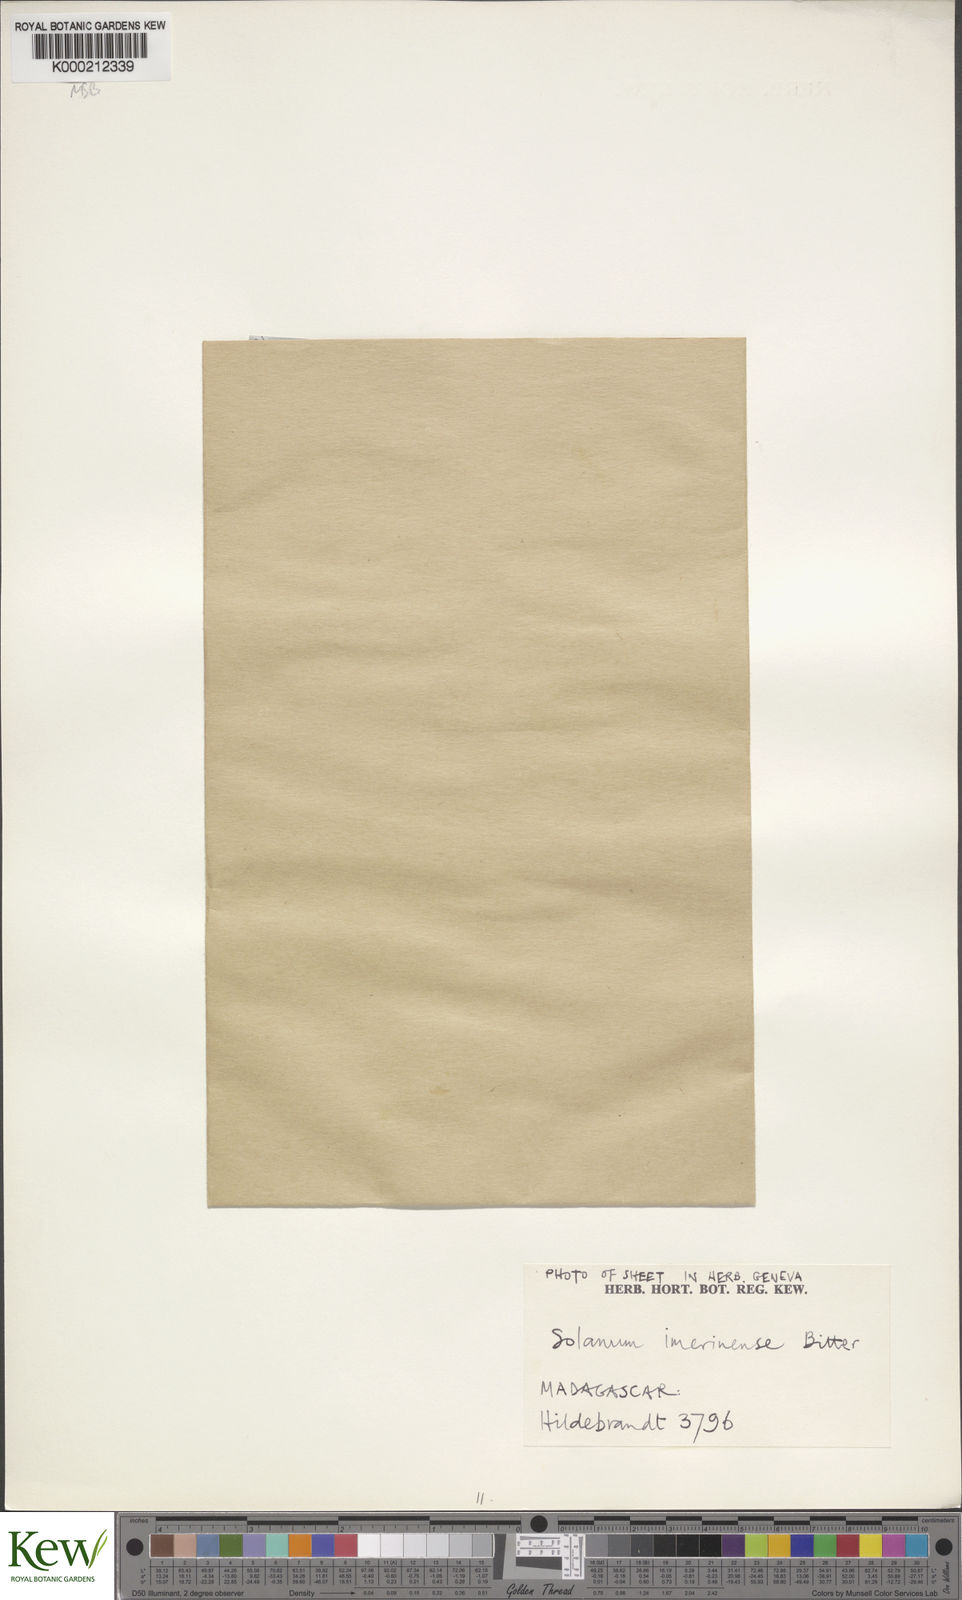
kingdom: Plantae
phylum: Tracheophyta
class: Magnoliopsida
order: Solanales
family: Solanaceae
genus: Solanum
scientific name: Solanum americanum
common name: American black nightshade
